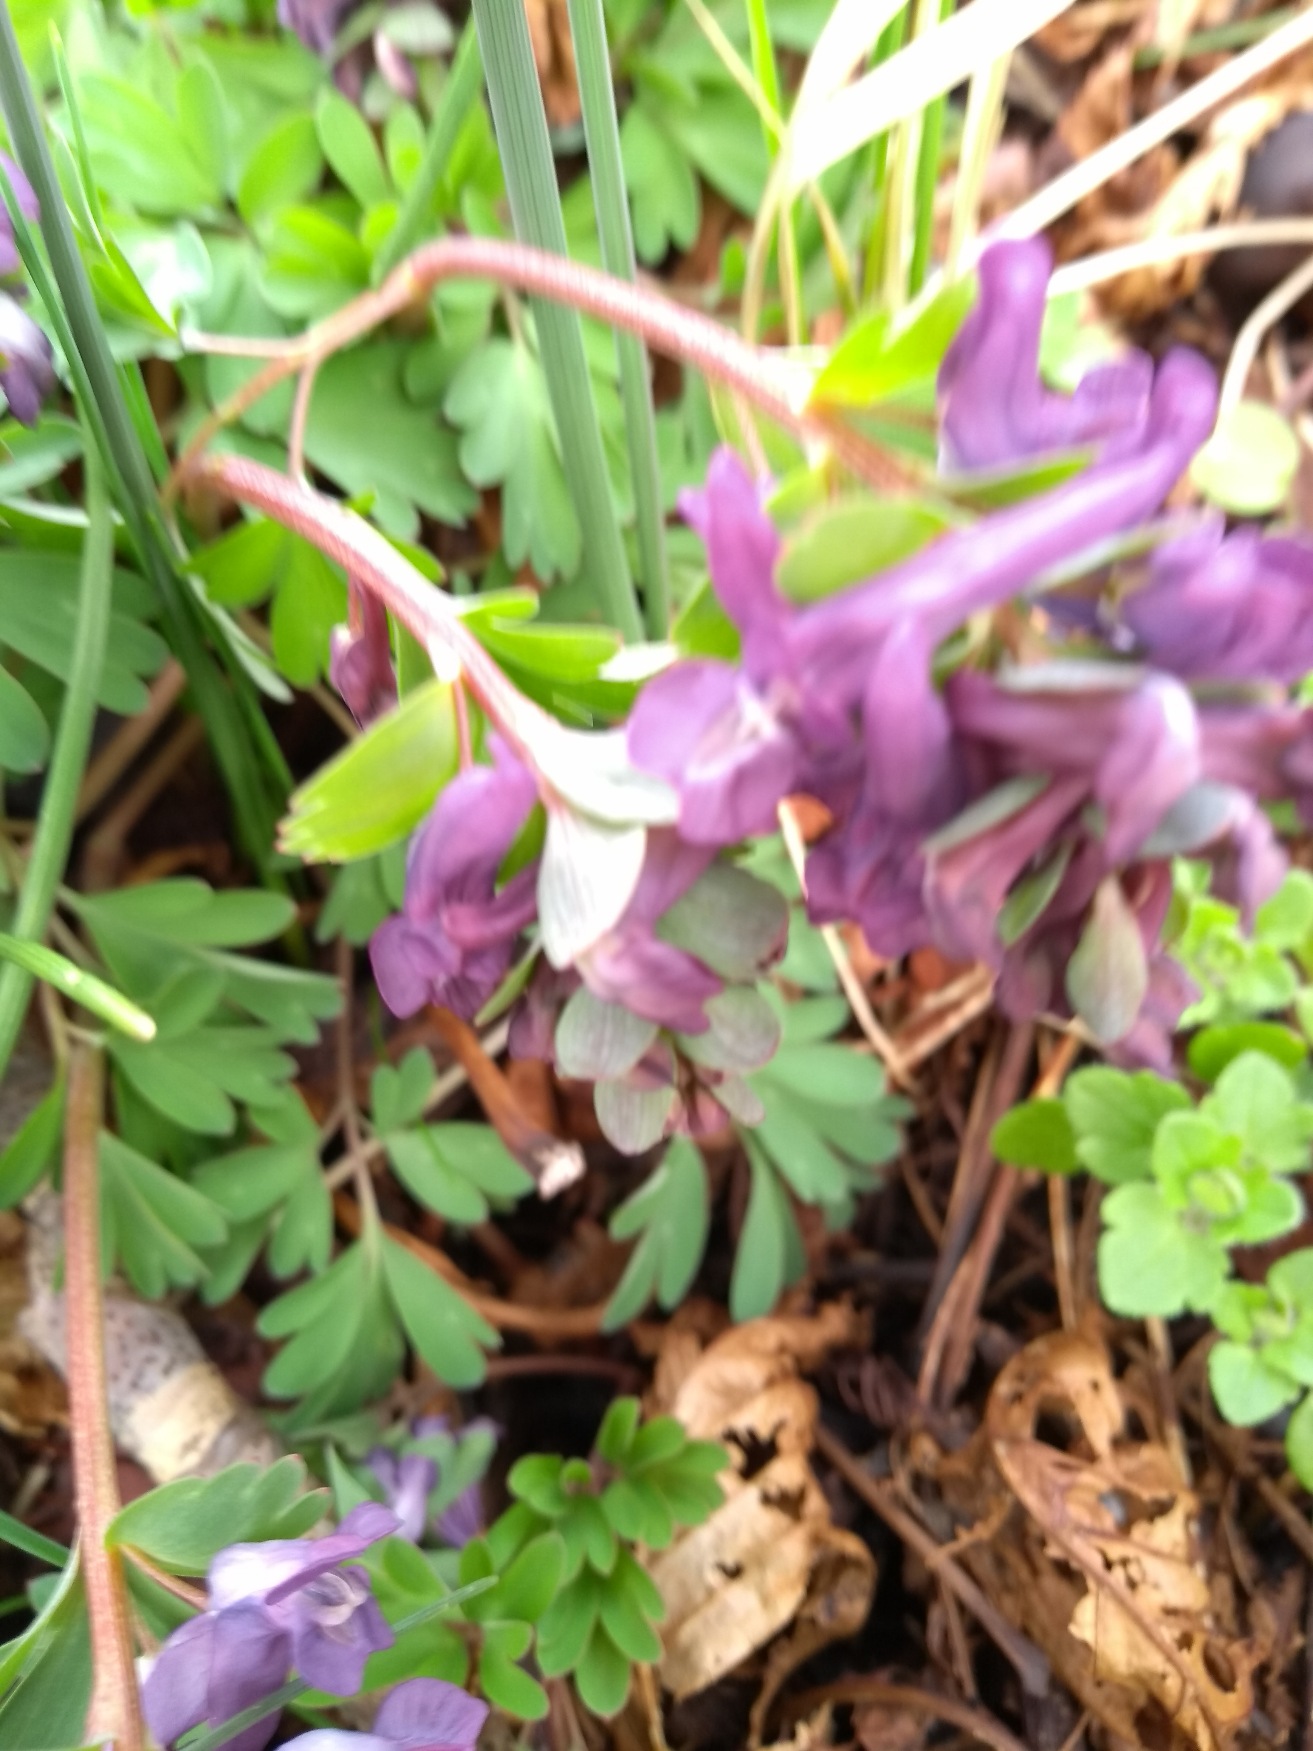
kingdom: Plantae
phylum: Tracheophyta
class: Magnoliopsida
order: Ranunculales
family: Papaveraceae
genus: Corydalis
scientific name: Corydalis solida
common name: Langstilket lærkespore
